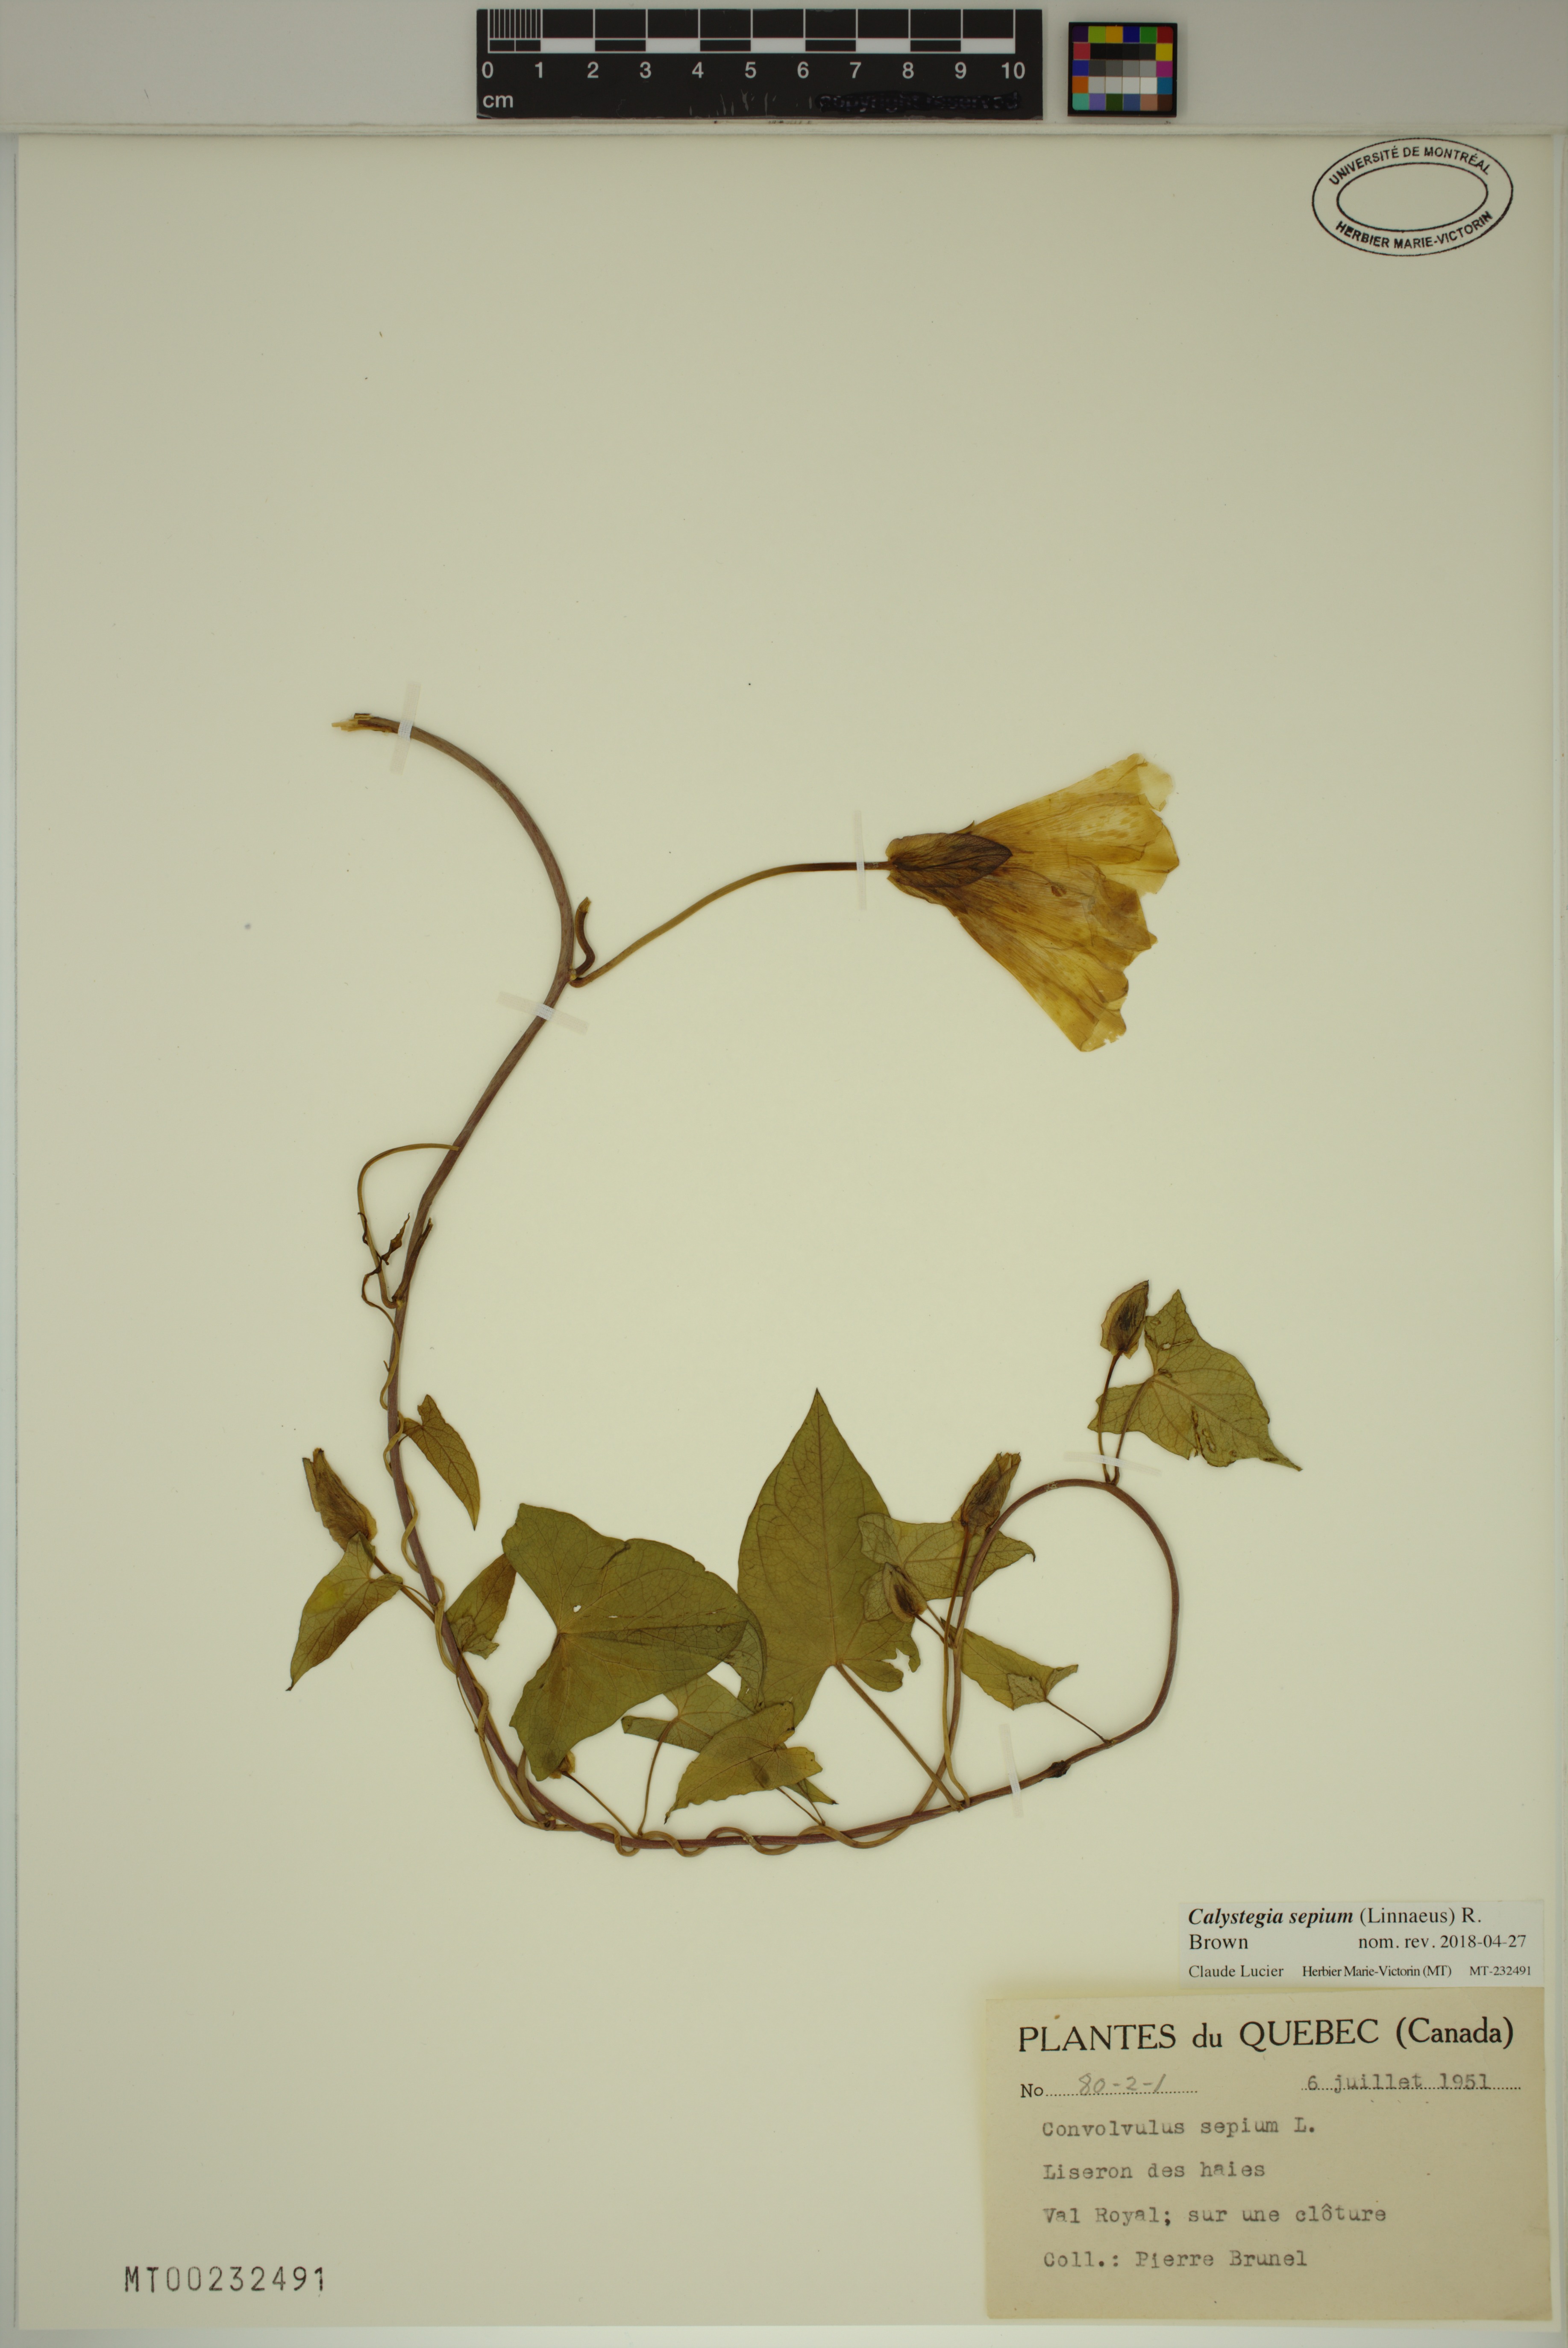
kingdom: Plantae
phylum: Tracheophyta
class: Magnoliopsida
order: Solanales
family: Convolvulaceae
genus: Calystegia
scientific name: Calystegia sepium
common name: Hedge bindweed
